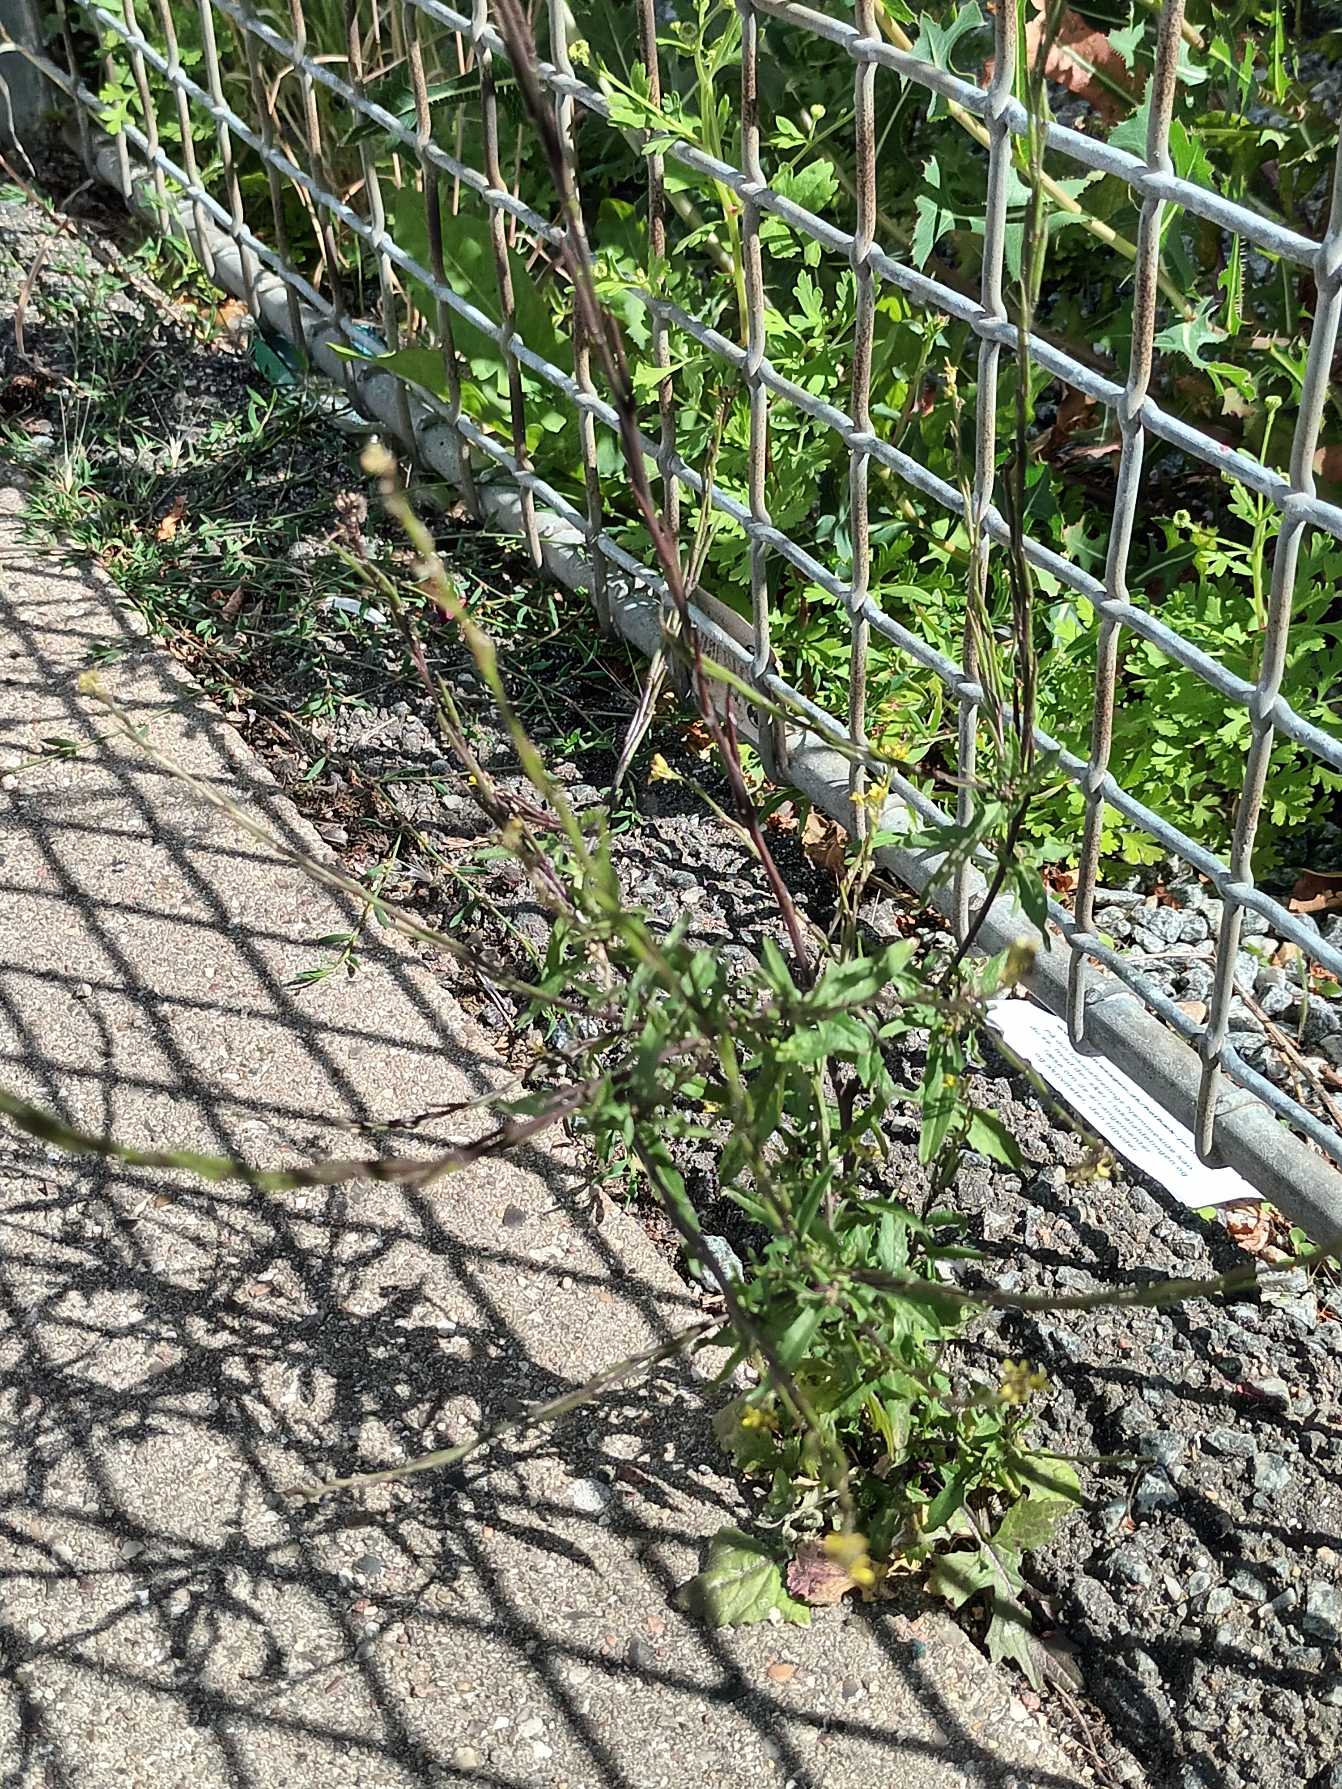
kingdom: Plantae
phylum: Tracheophyta
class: Magnoliopsida
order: Brassicales
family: Brassicaceae
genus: Sisymbrium
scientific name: Sisymbrium officinale
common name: Rank vejsennep
